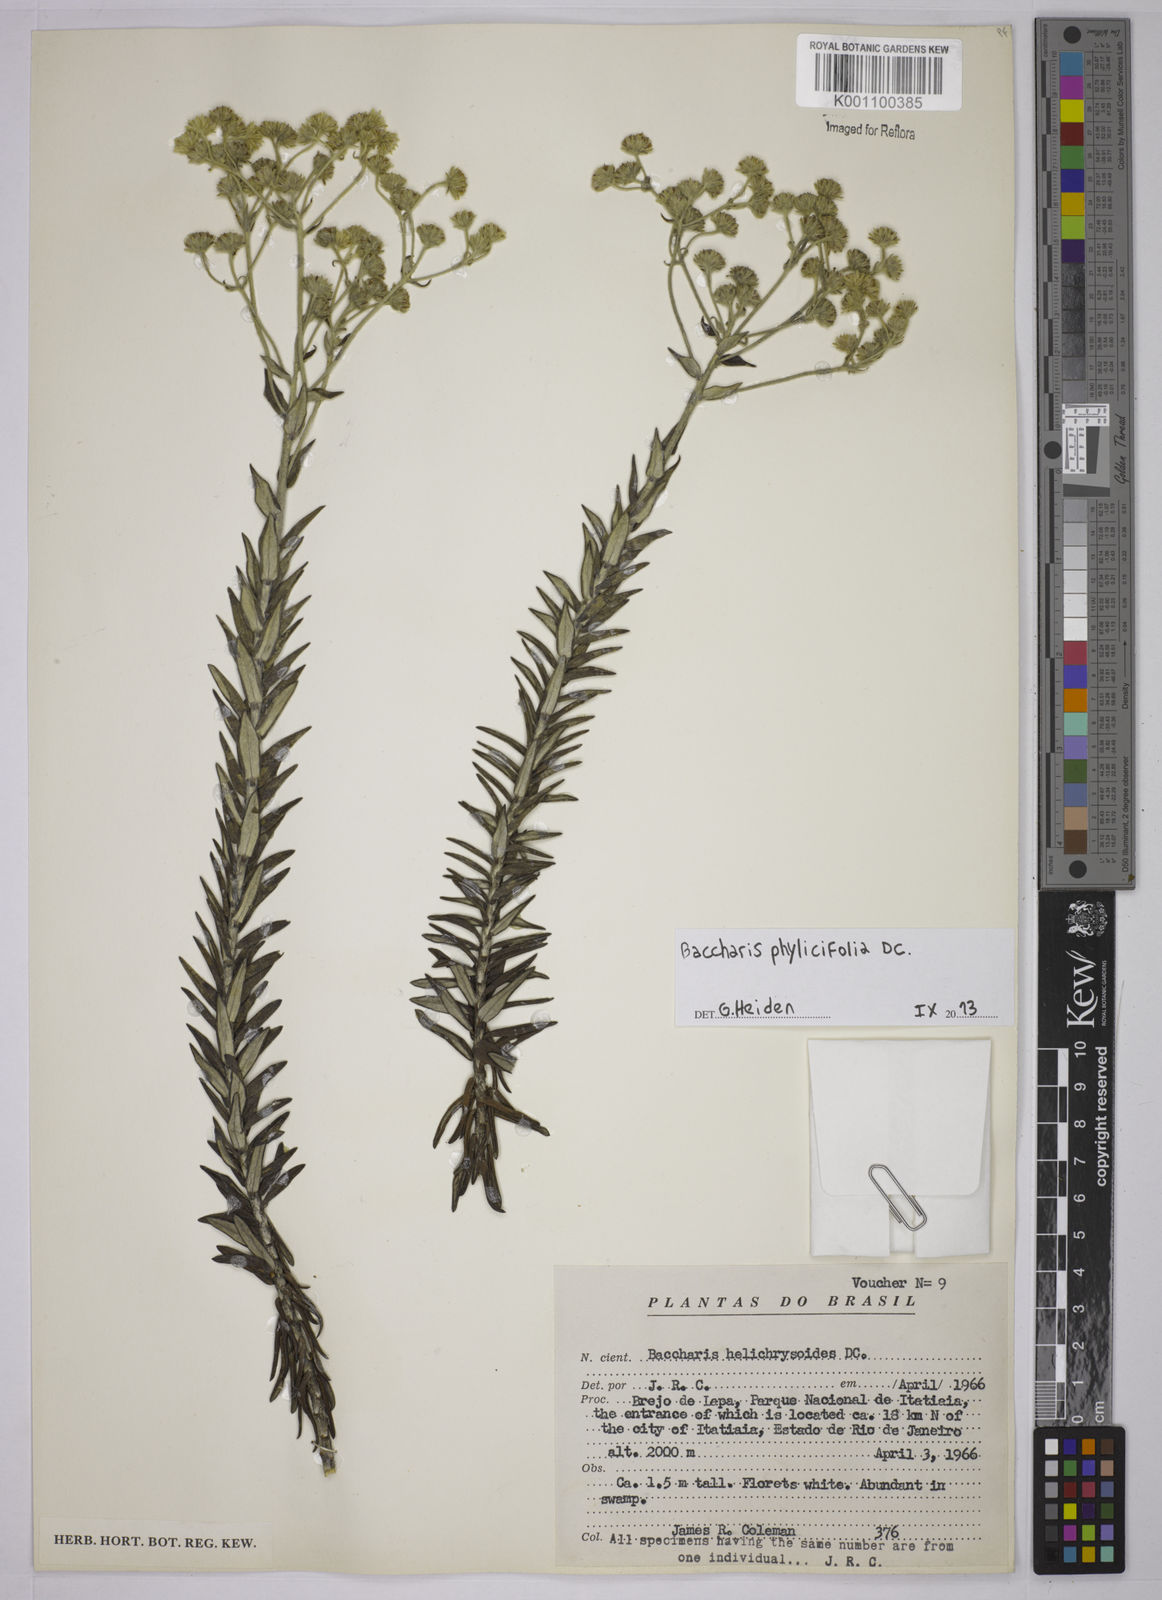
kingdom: Plantae
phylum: Tracheophyta
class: Magnoliopsida
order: Asterales
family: Asteraceae
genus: Baccharis
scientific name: Baccharis leucopappa
